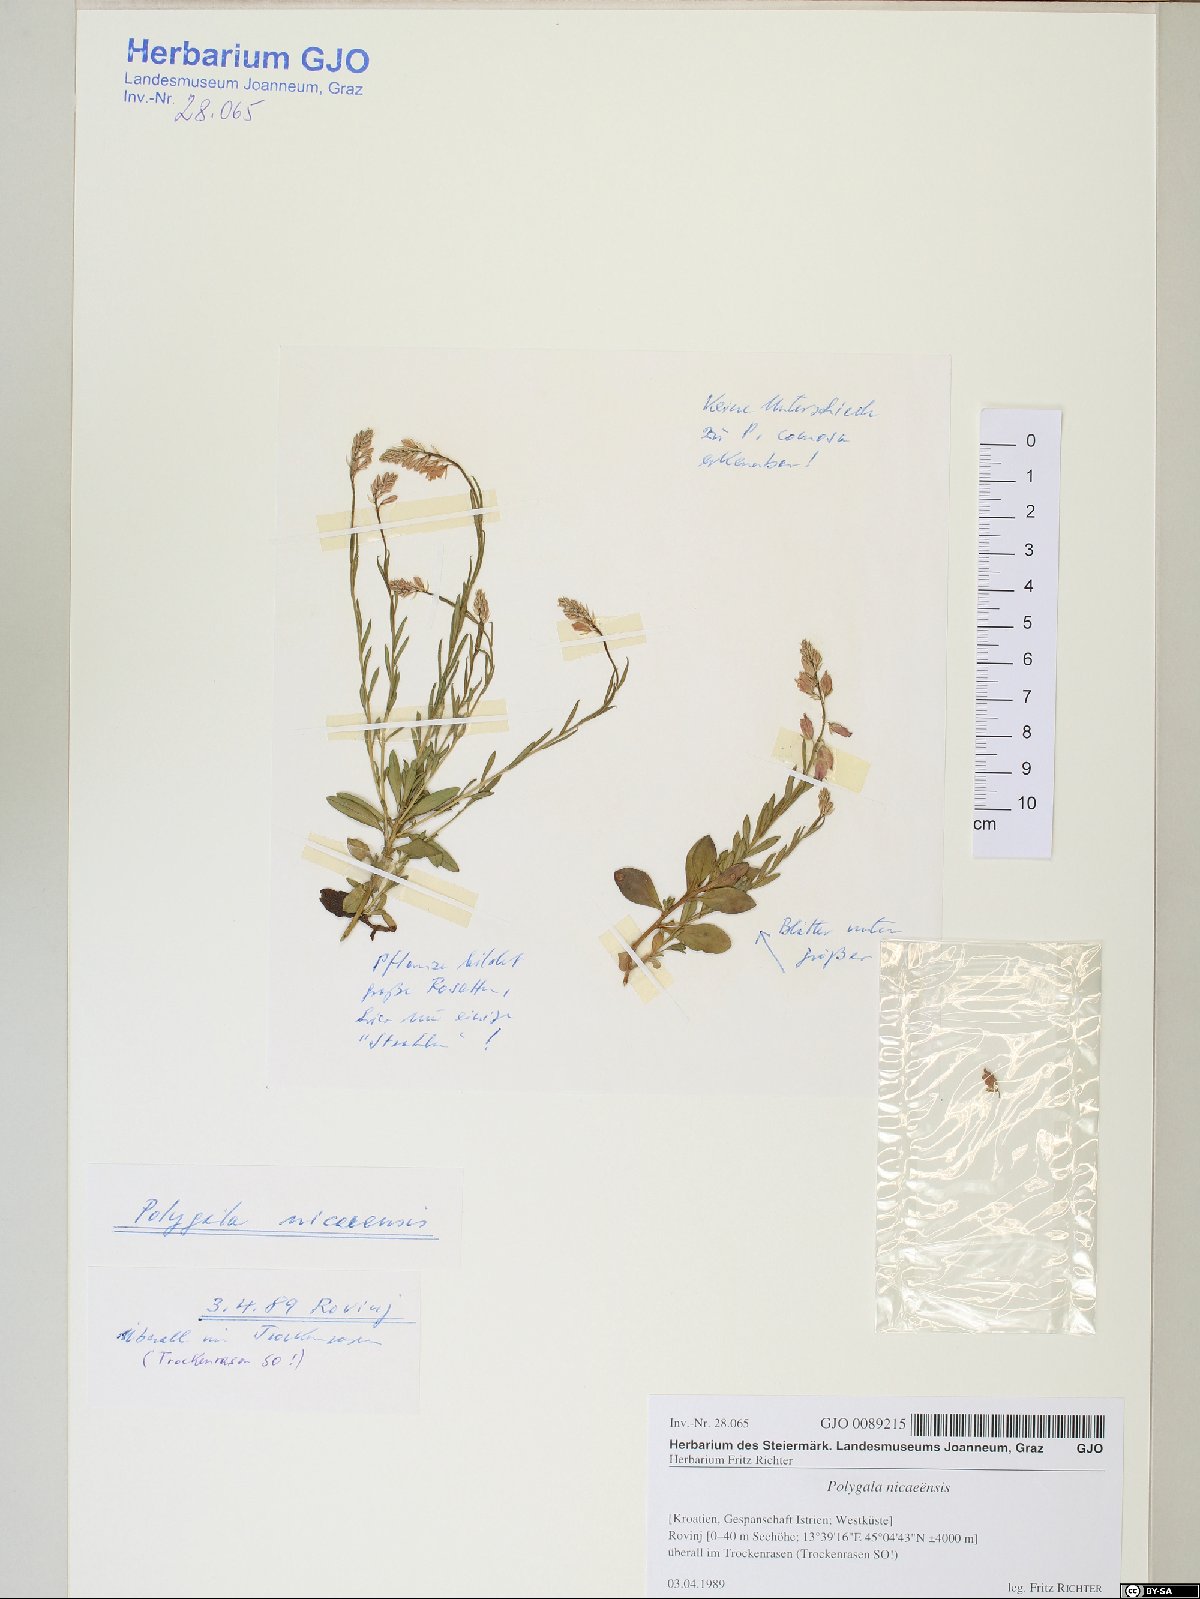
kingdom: Plantae
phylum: Tracheophyta
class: Magnoliopsida
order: Fabales
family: Polygalaceae
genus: Polygala
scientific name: Polygala
